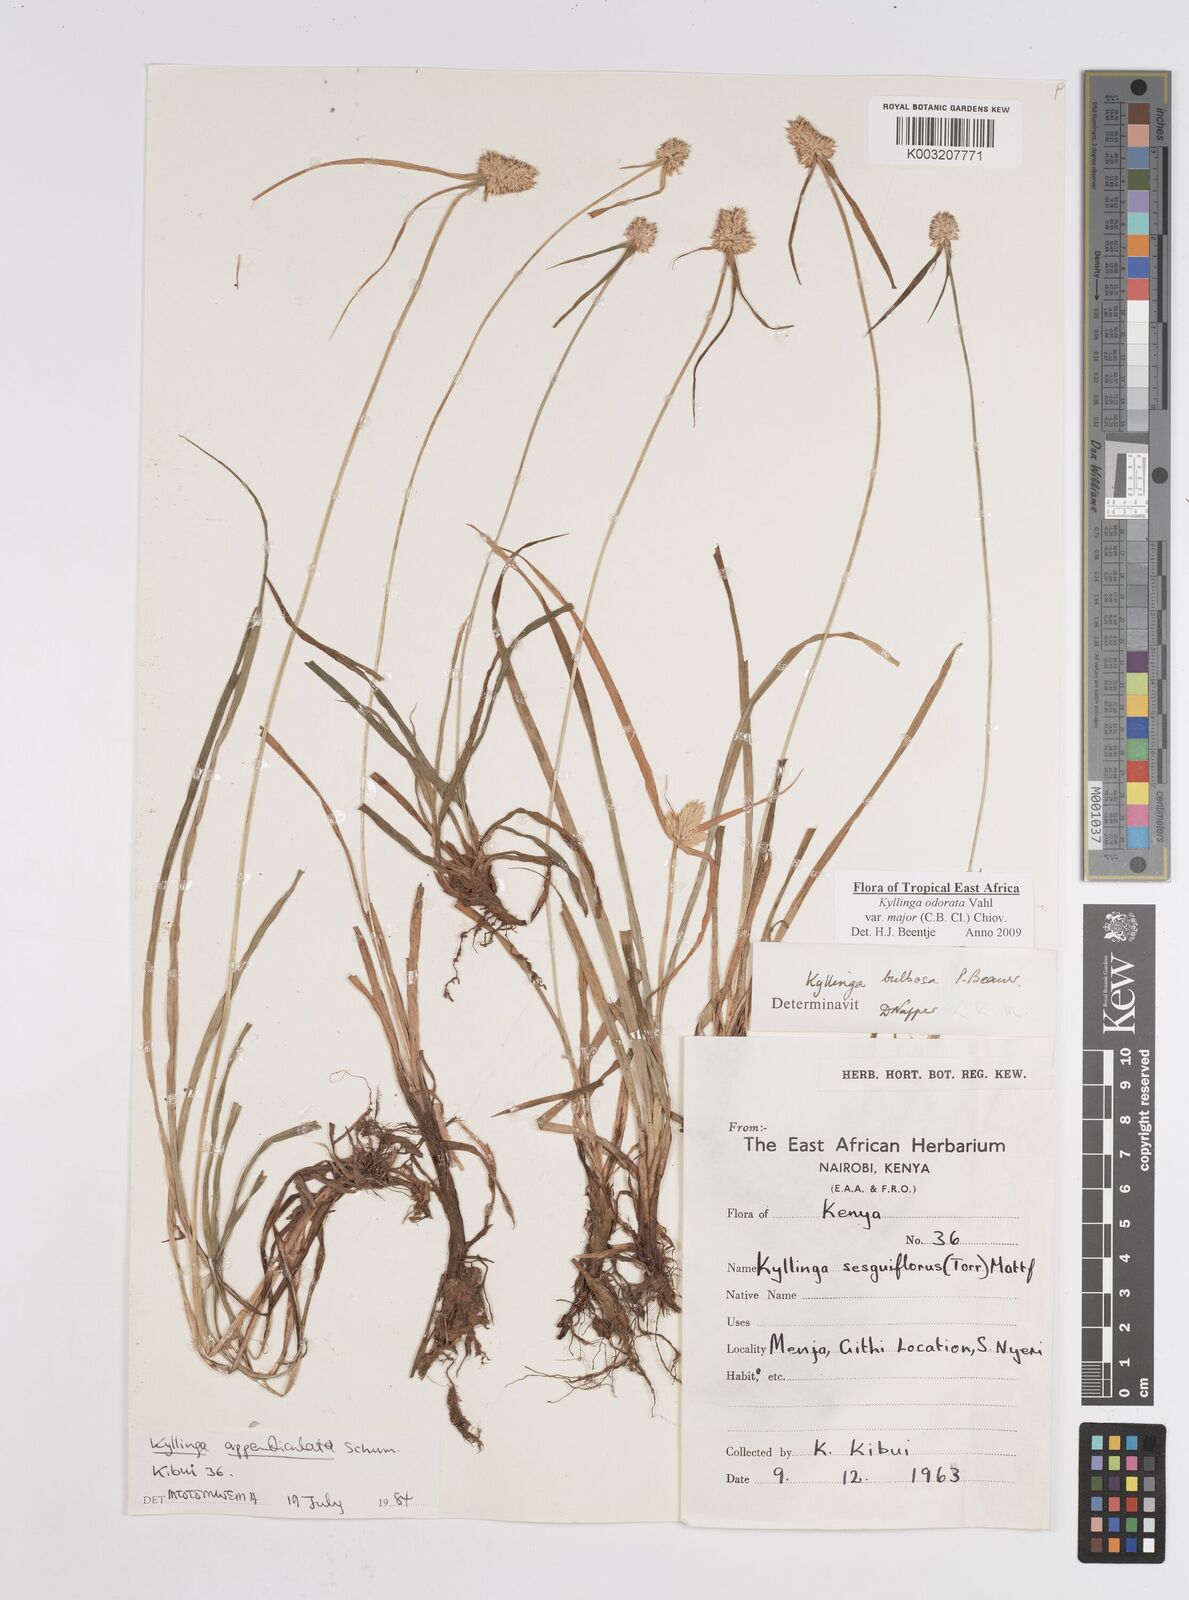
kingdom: Plantae
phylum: Tracheophyta
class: Liliopsida
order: Poales
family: Cyperaceae
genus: Cyperus
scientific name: Cyperus
